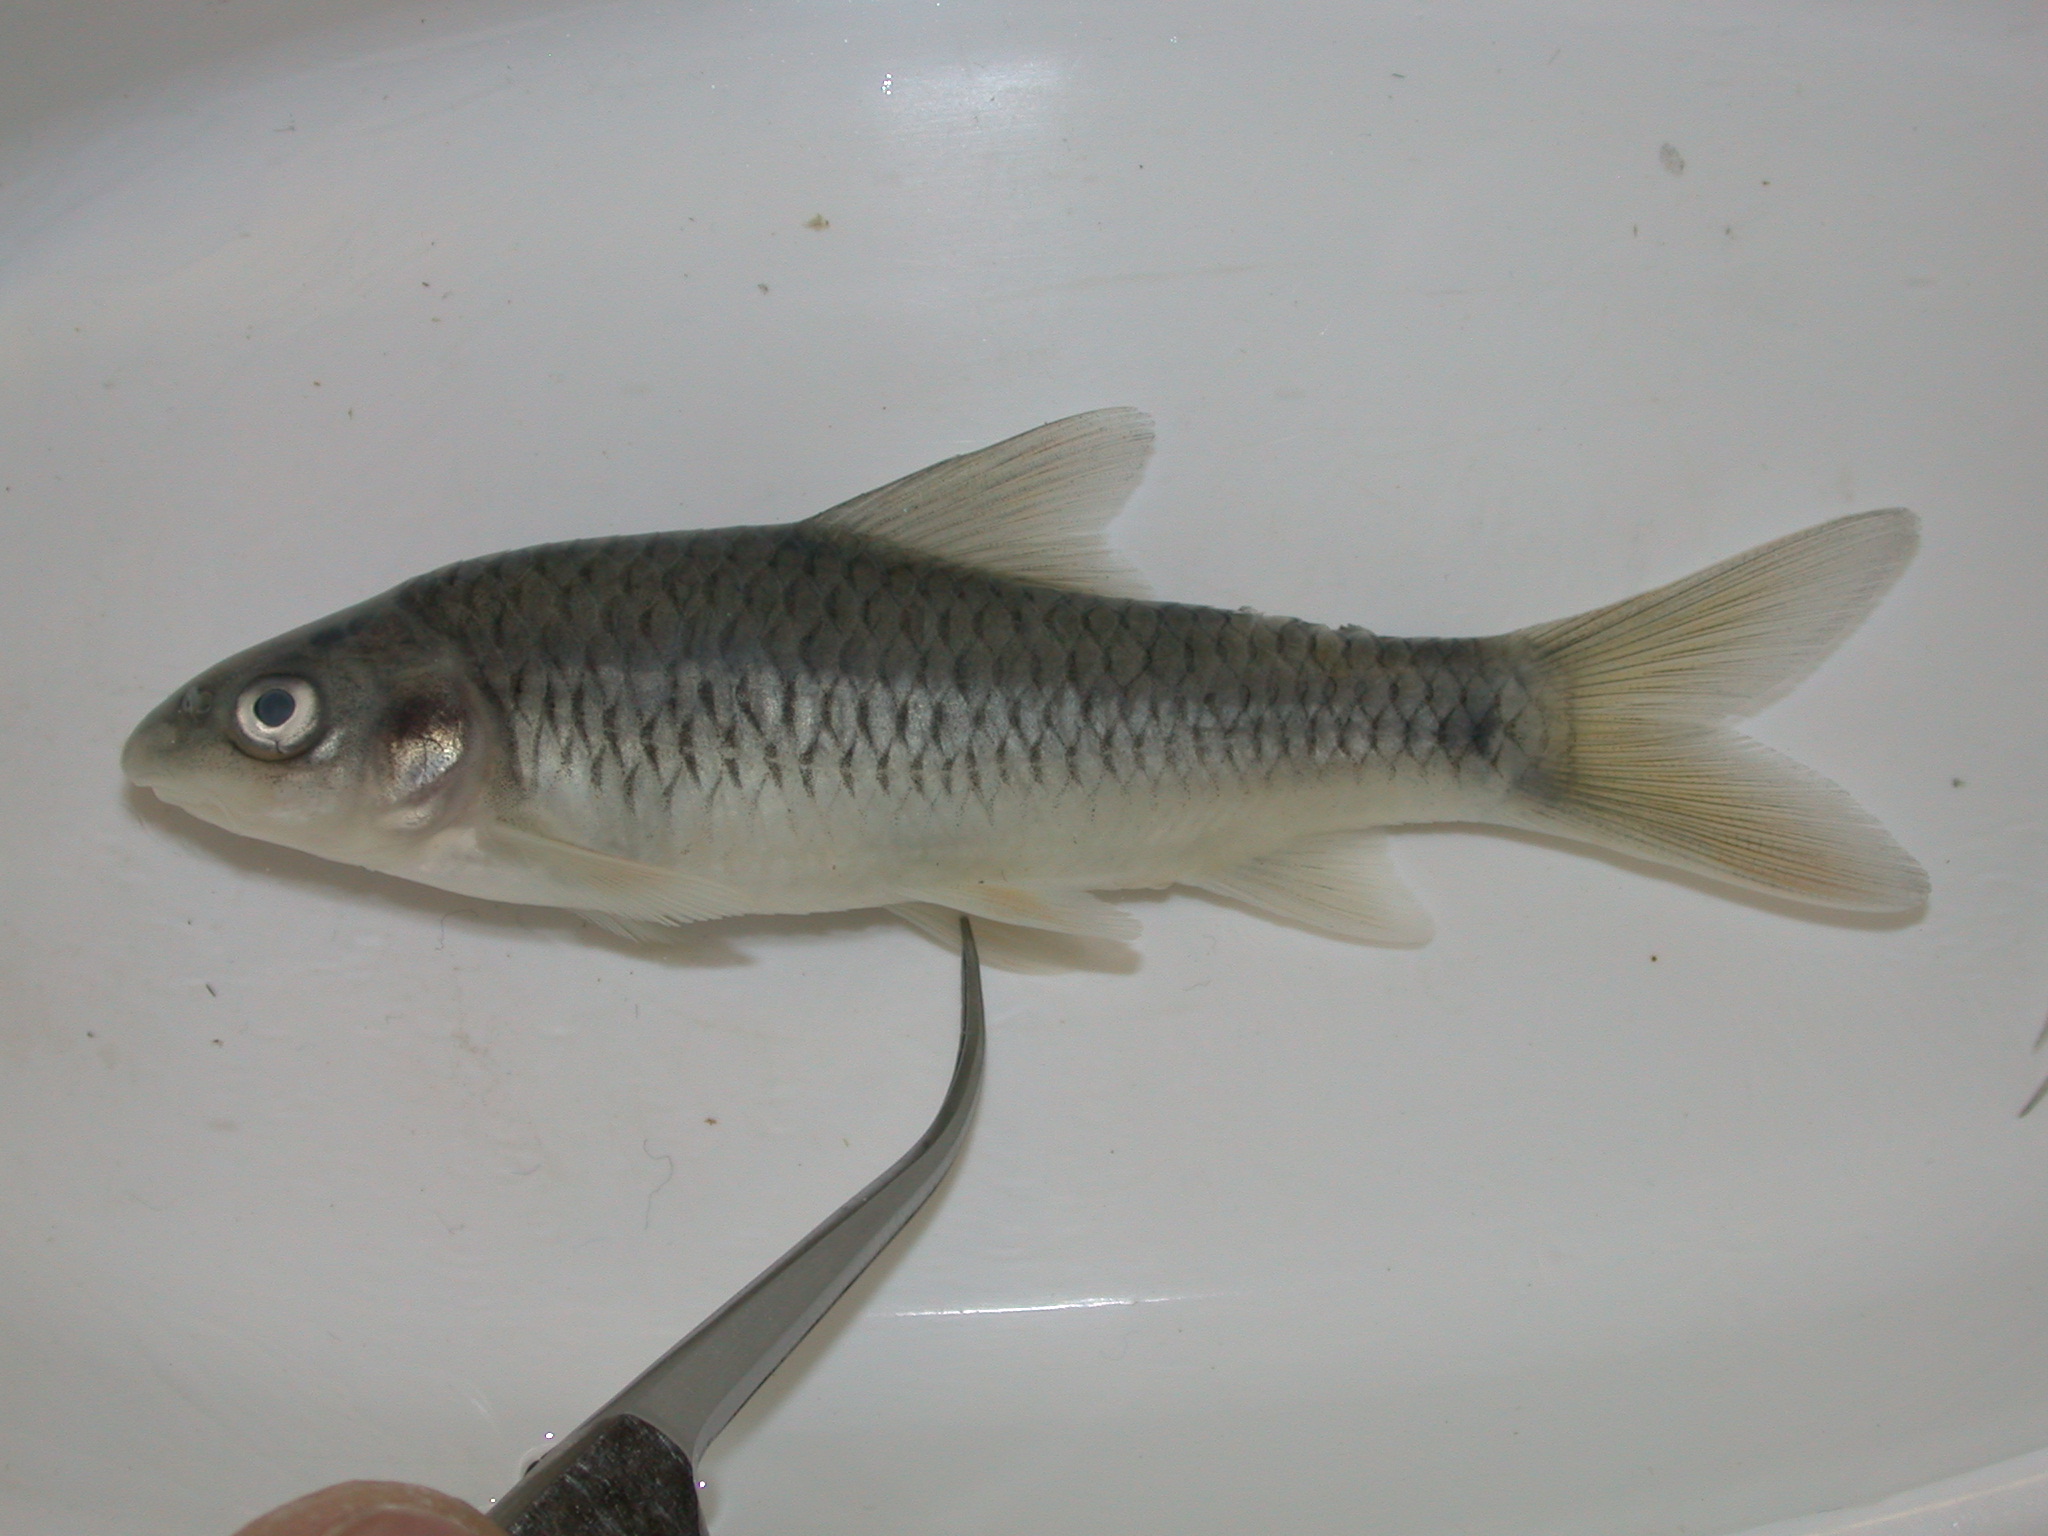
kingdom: Animalia
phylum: Chordata
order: Cypriniformes
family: Cyprinidae
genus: Labeobarbus
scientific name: Labeobarbus pungweensis
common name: Pungwe chiselmouth
